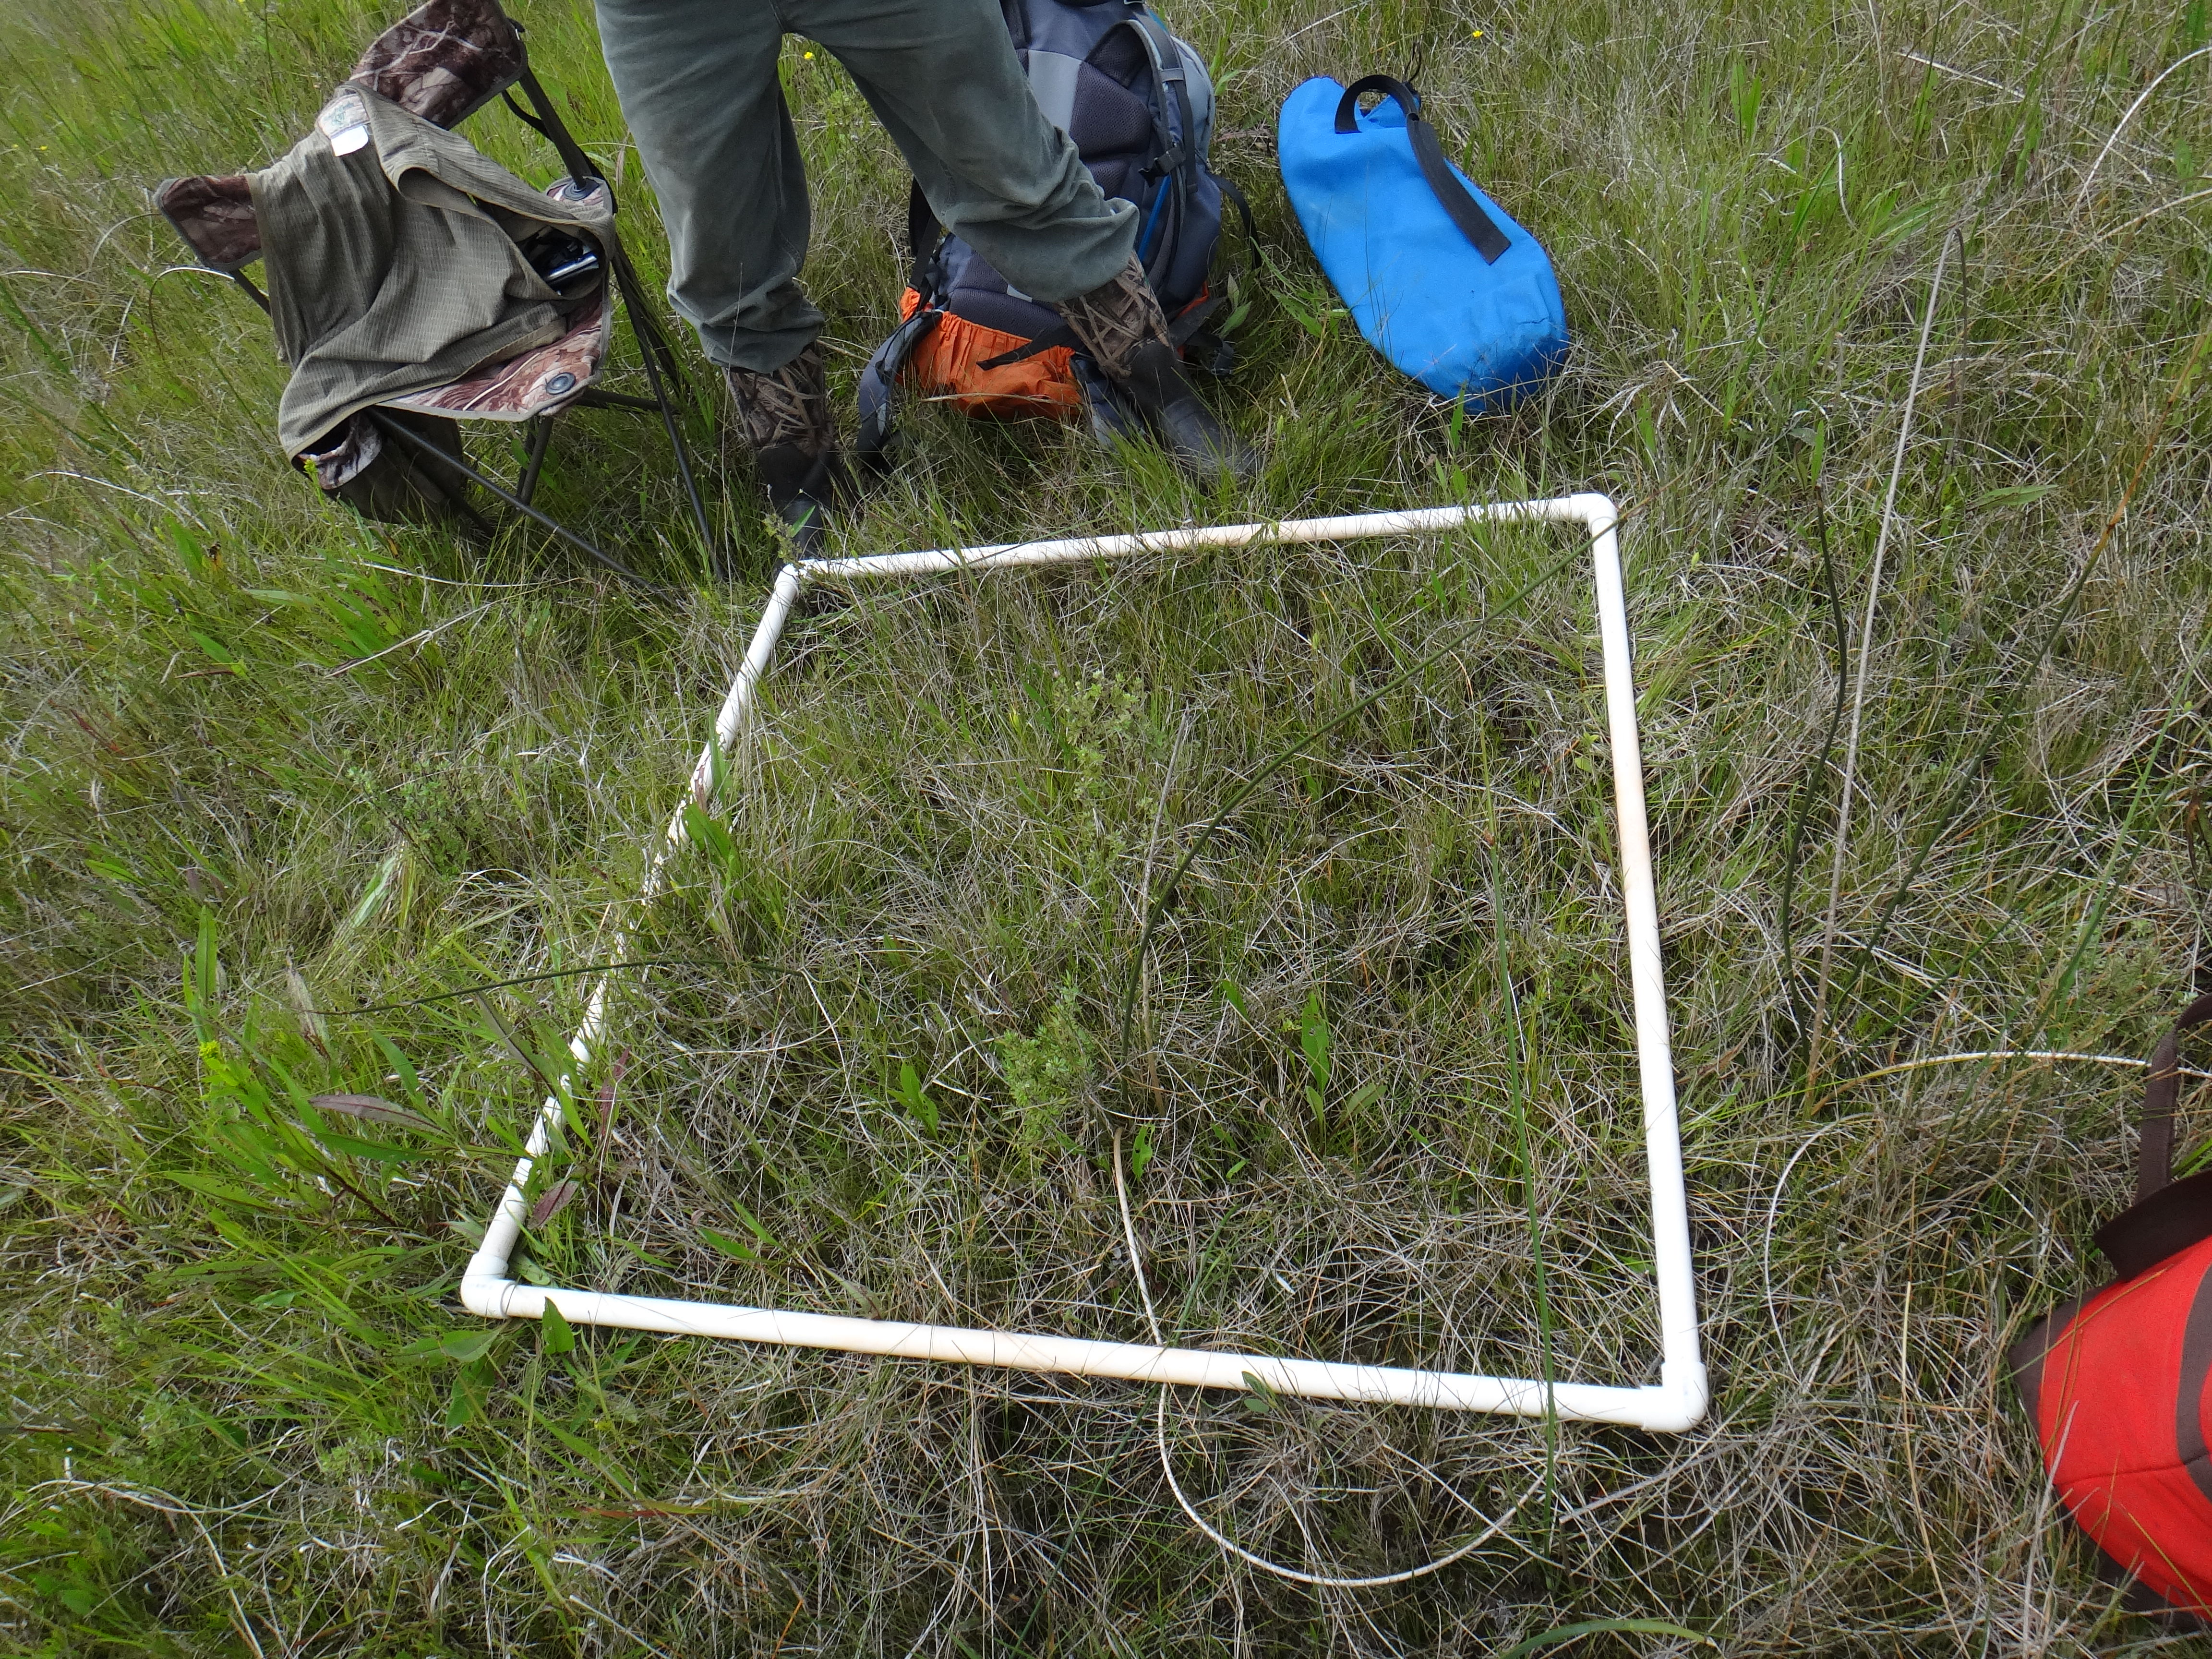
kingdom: Plantae
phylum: Tracheophyta
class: Liliopsida
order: Poales
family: Cyperaceae
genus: Schoenoplectus
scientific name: Schoenoplectus acutus
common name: Hardstem bulrush
